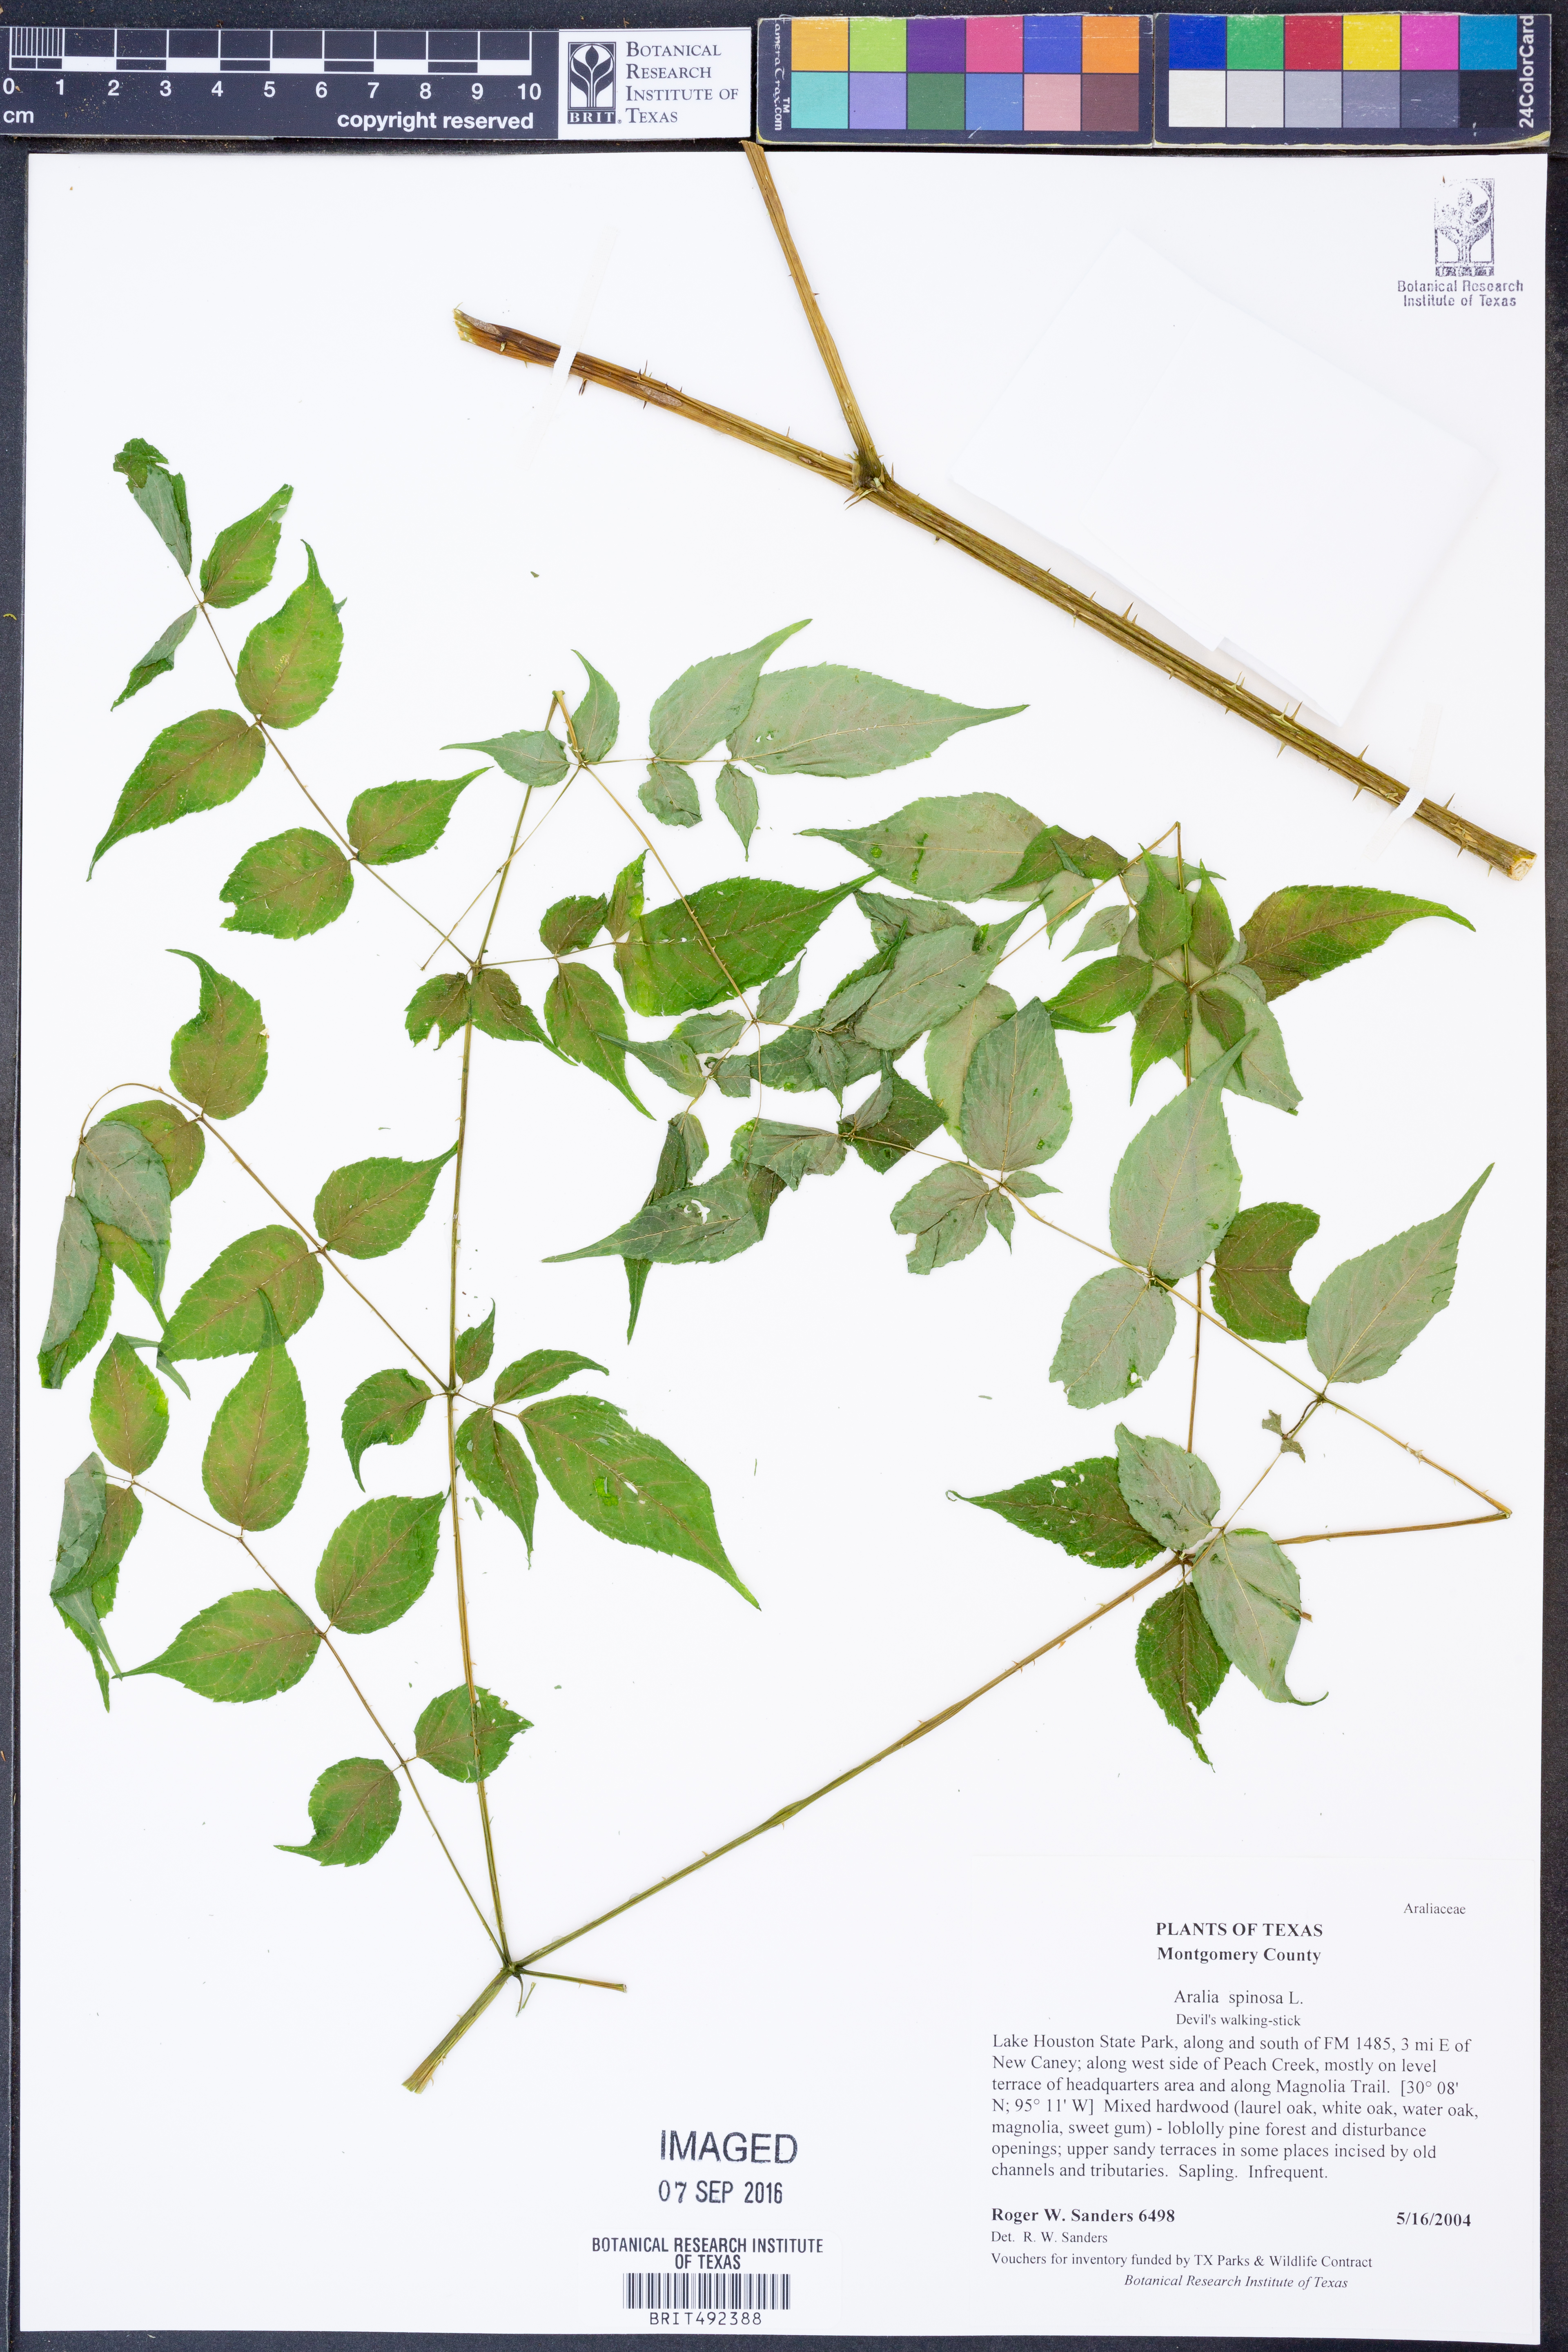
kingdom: Plantae
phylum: Tracheophyta
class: Magnoliopsida
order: Apiales
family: Araliaceae
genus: Aralia
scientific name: Aralia spinosa
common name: Hercules'-club
